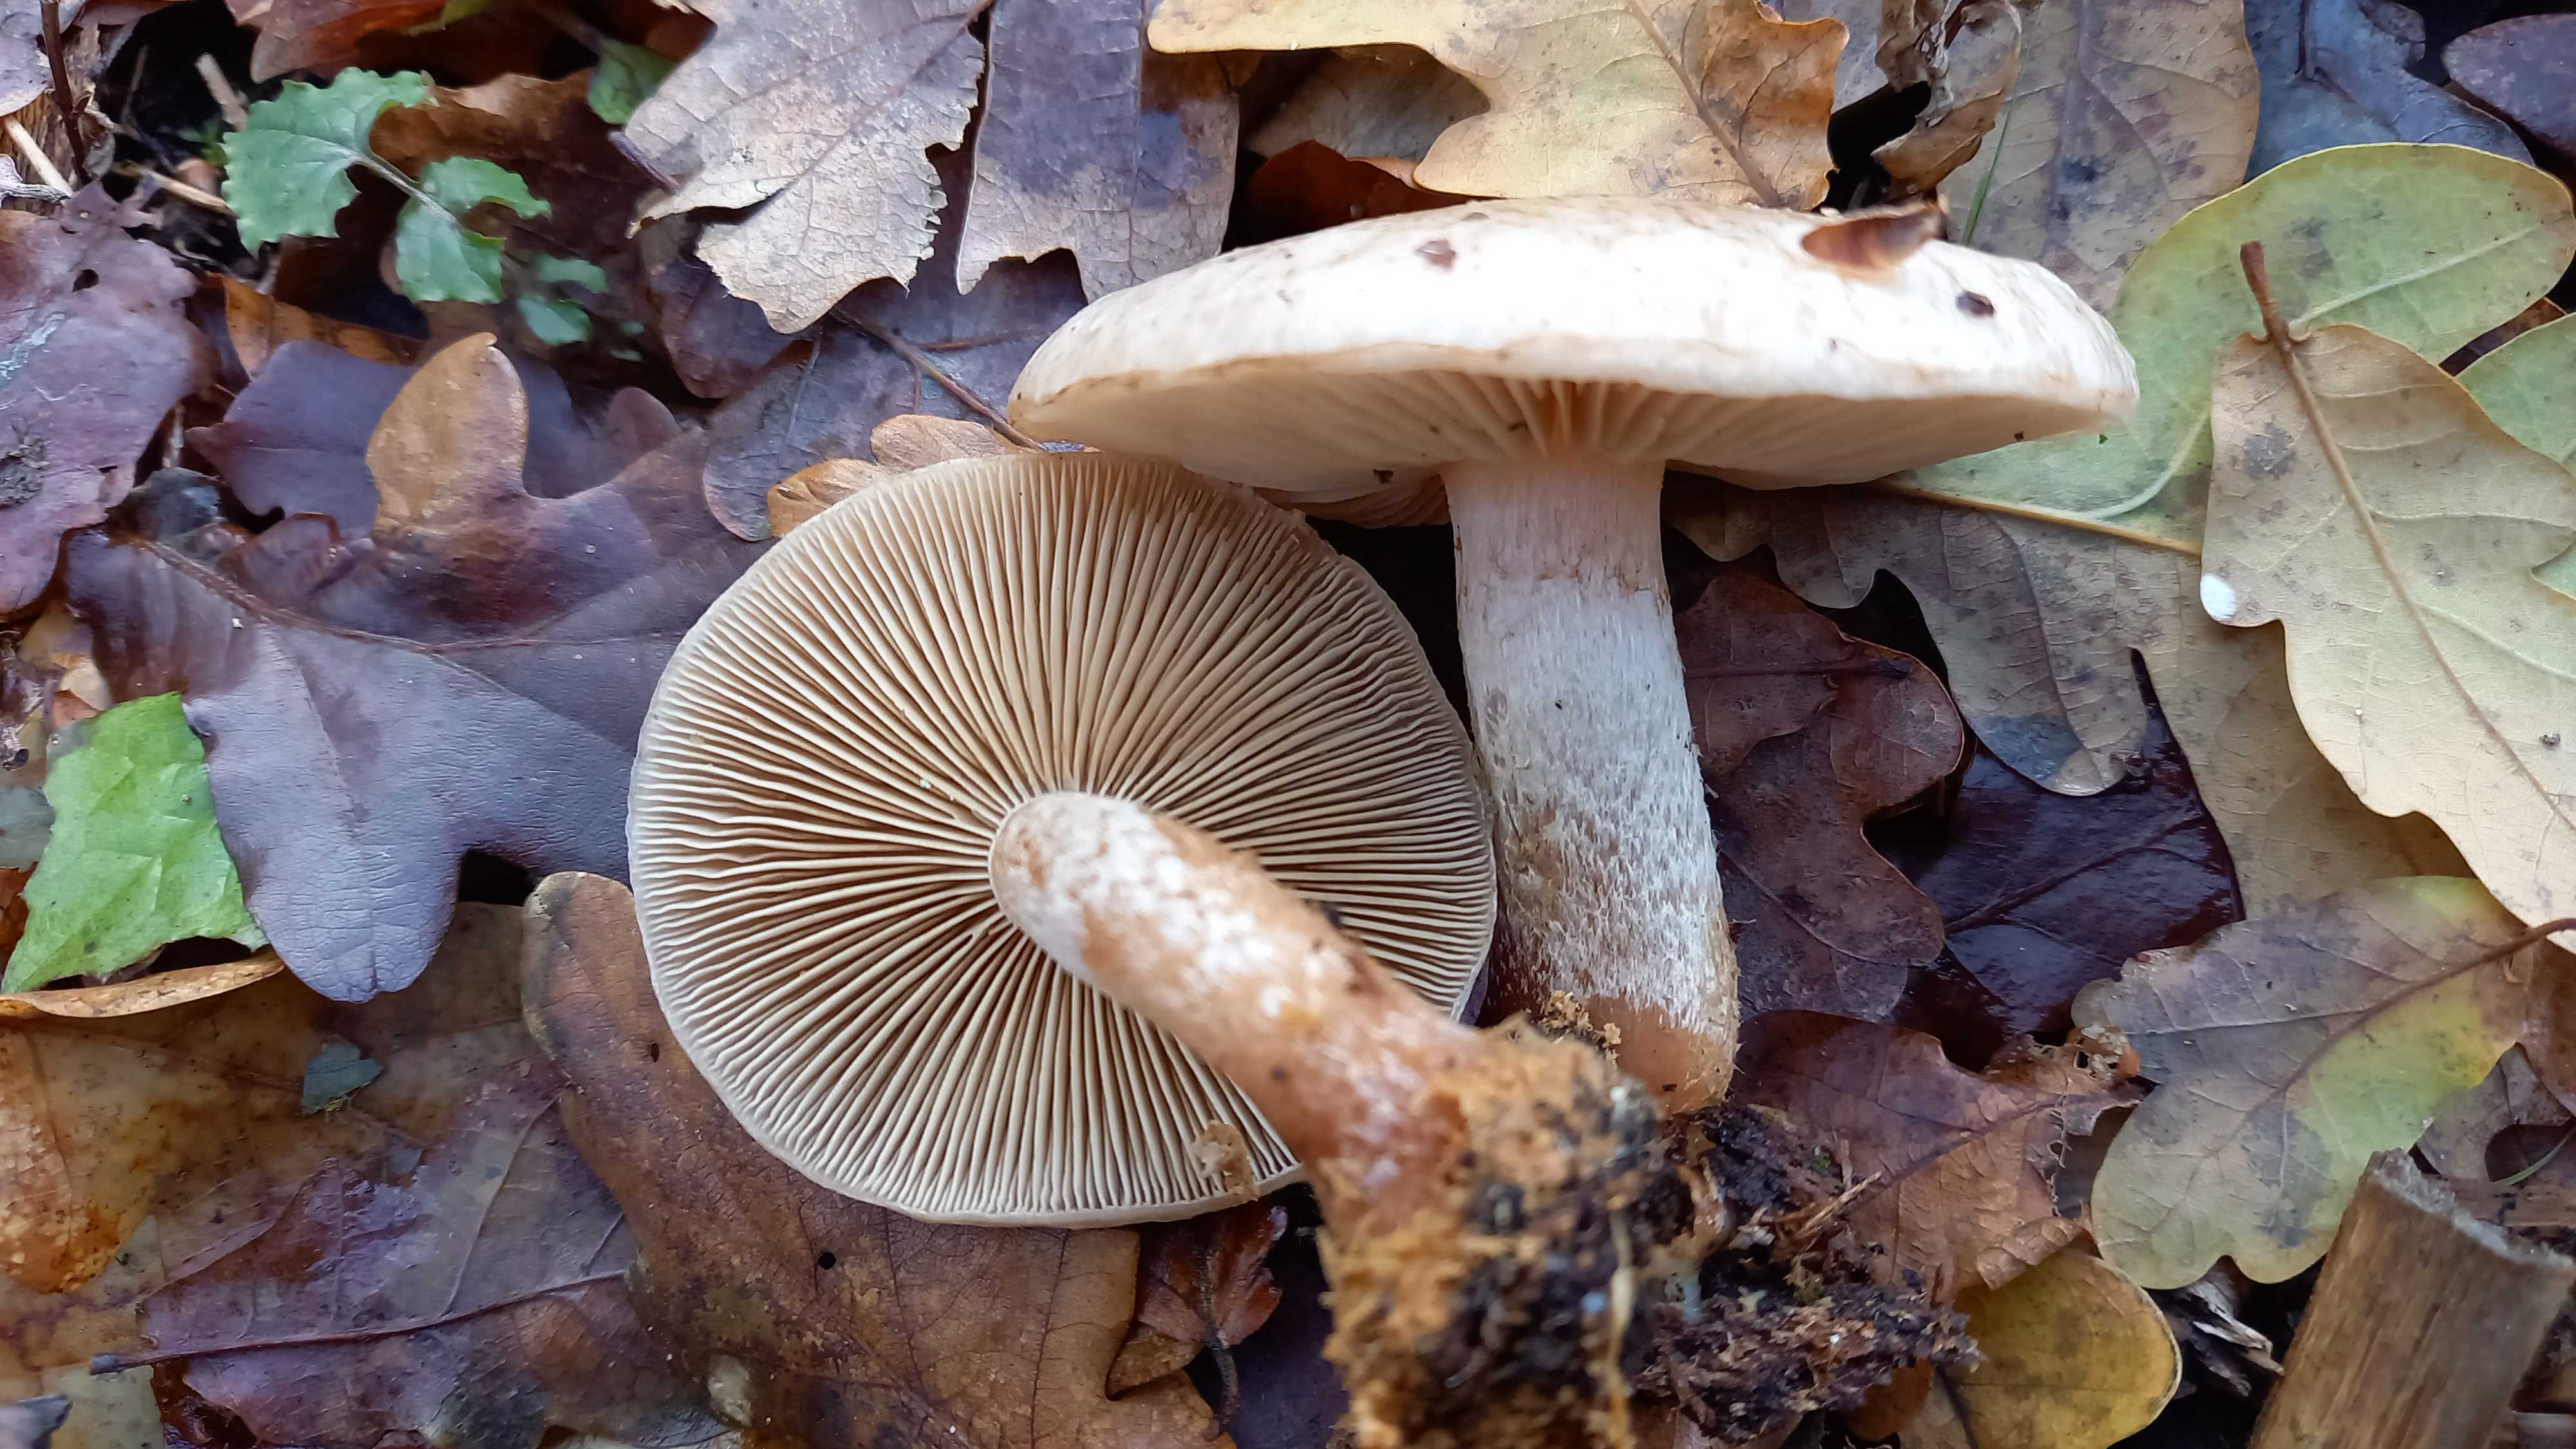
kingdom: Fungi
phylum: Basidiomycota
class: Agaricomycetes
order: Agaricales
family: Strophariaceae
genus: Pholiota
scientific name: Pholiota lenta
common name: løv-skælhat
